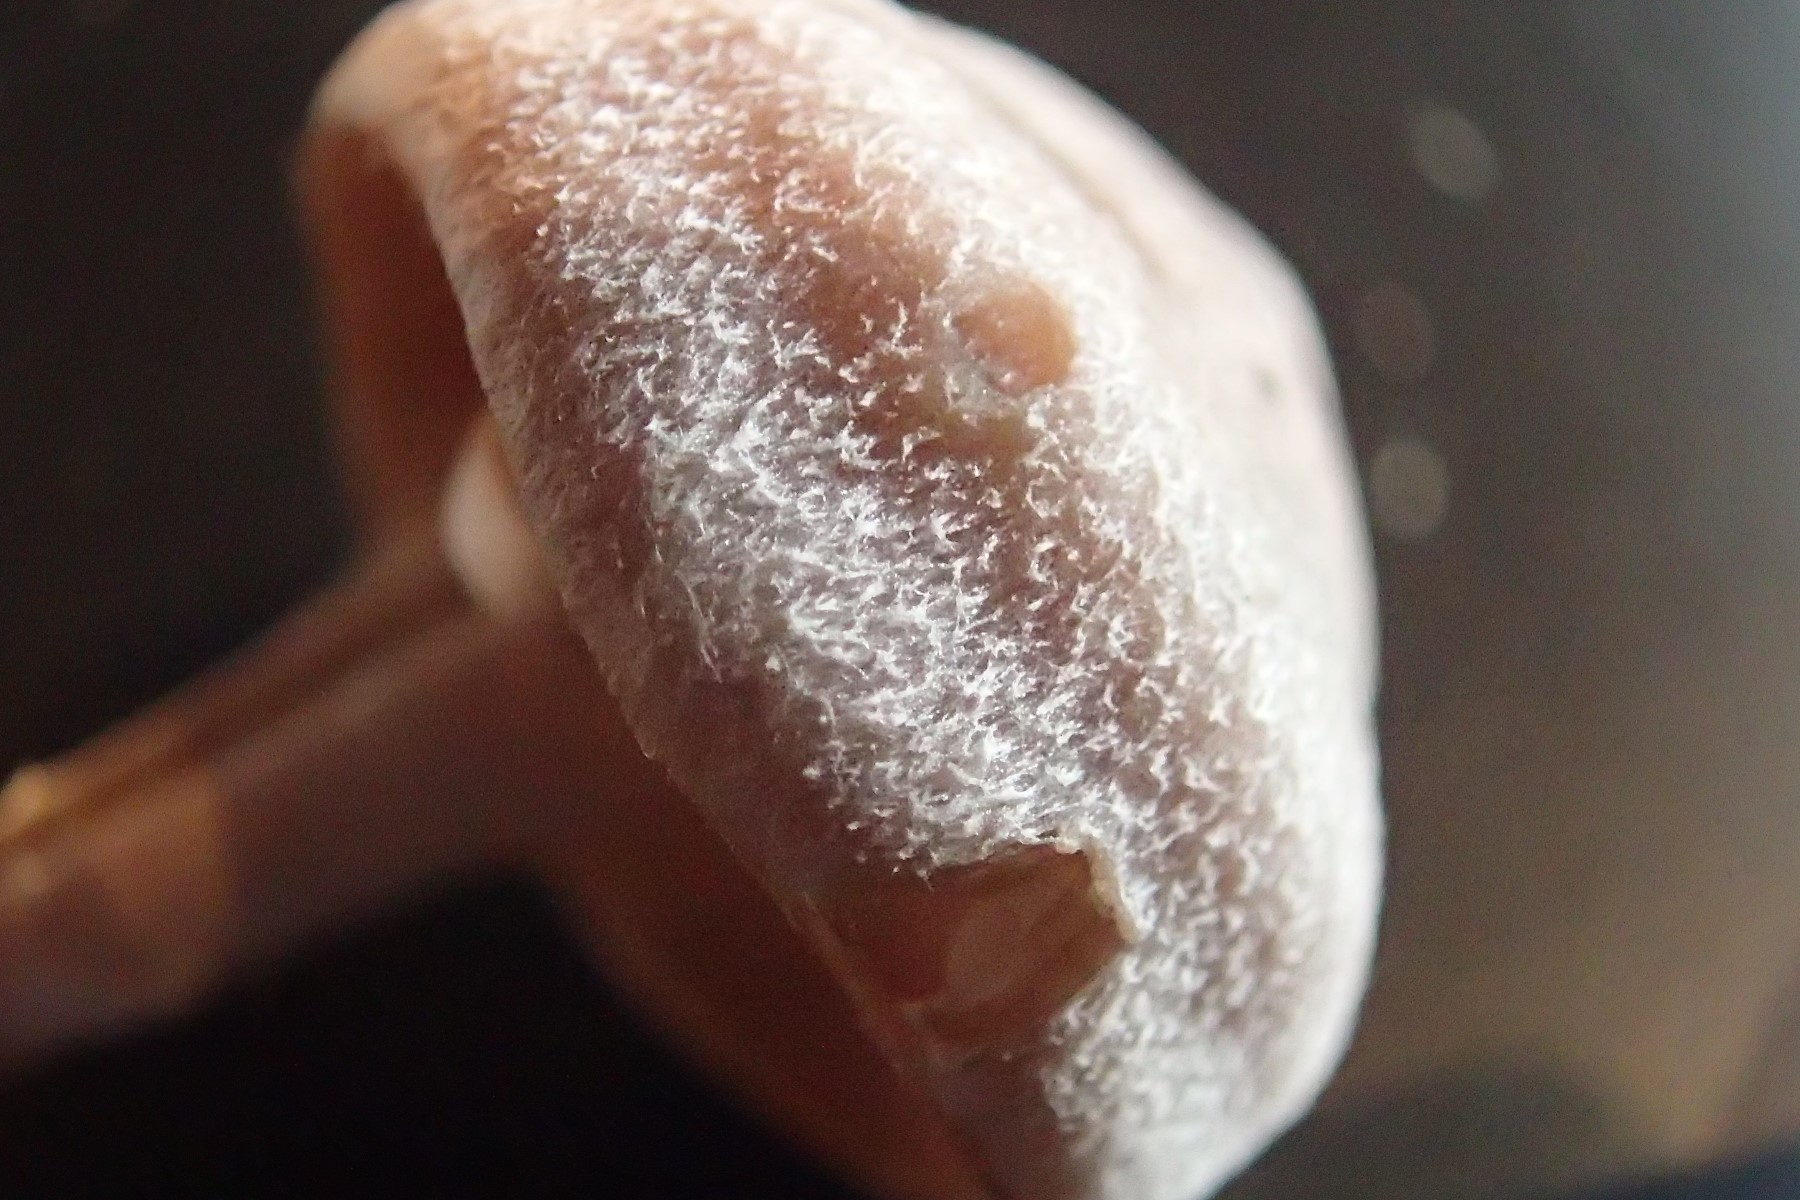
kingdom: Fungi
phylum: Basidiomycota
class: Agaricomycetes
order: Agaricales
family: Cortinariaceae
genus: Cortinarius
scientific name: Cortinarius hemitrichus
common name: hvidfnugget slørhat
